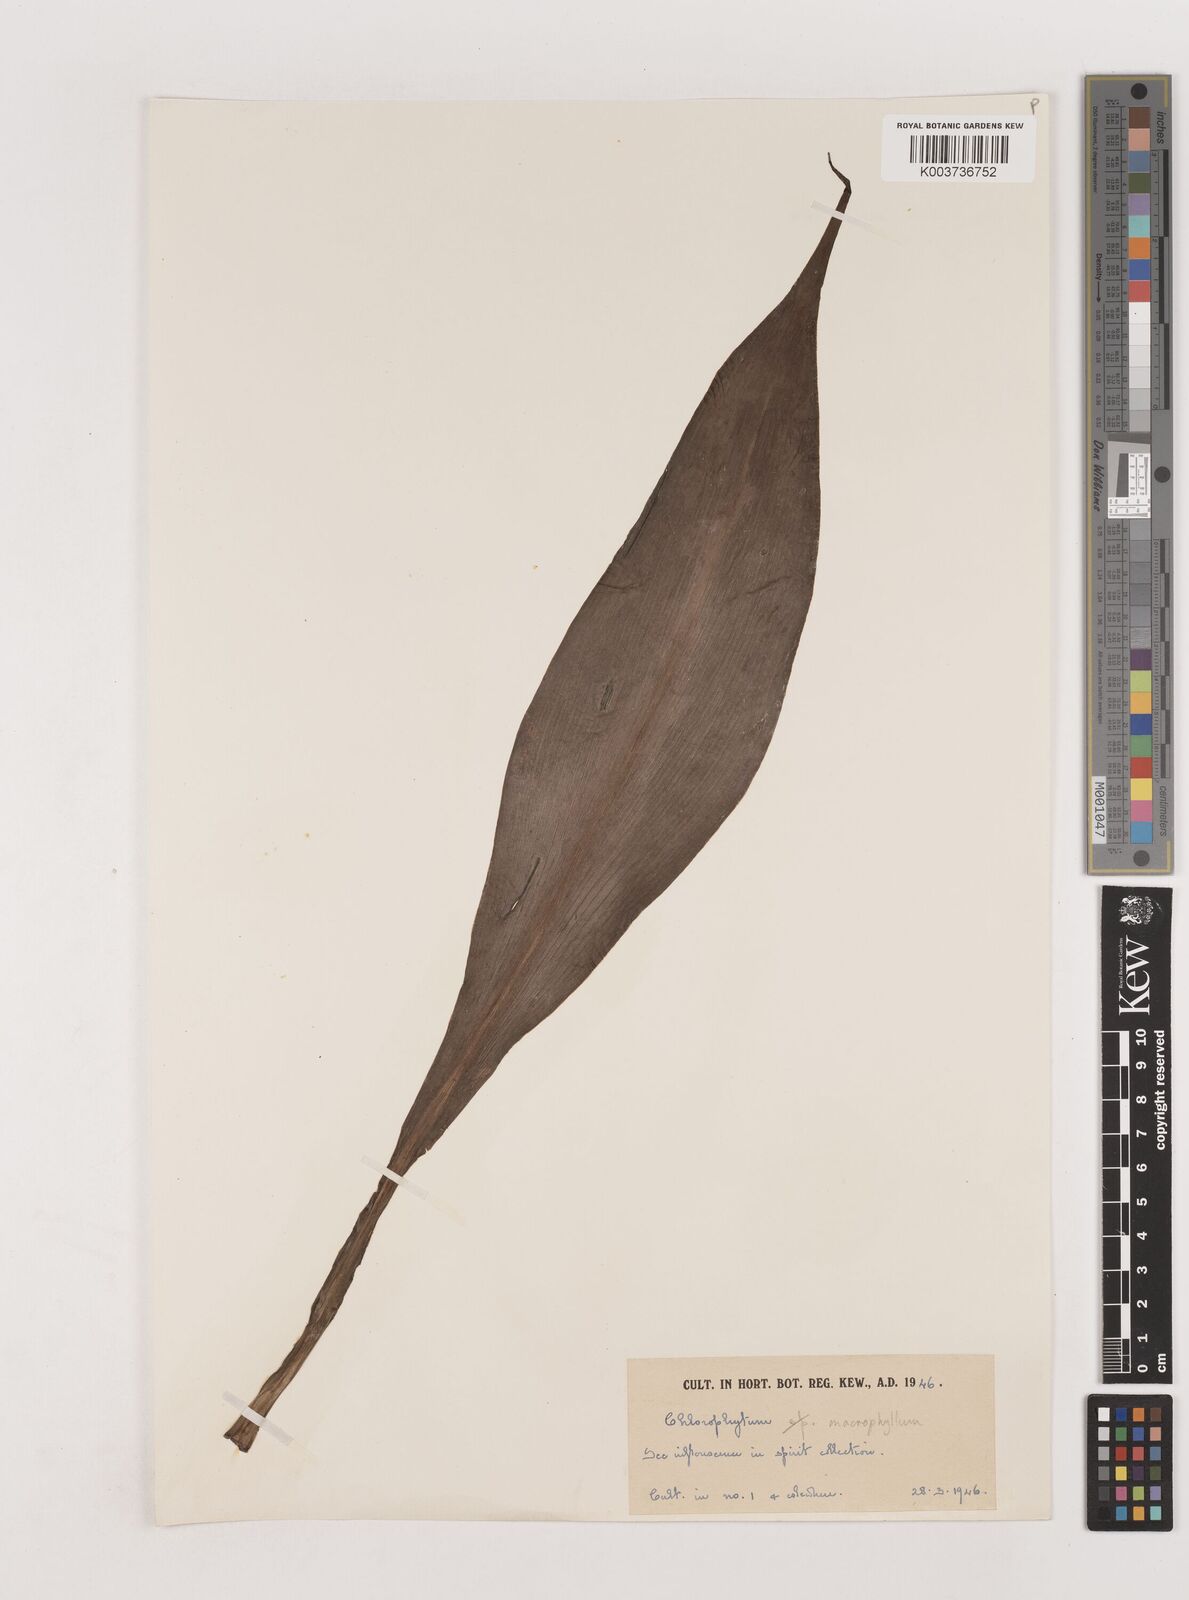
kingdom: Plantae
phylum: Tracheophyta
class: Liliopsida
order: Asparagales
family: Asparagaceae
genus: Chlorophytum
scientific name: Chlorophytum macrophyllum
